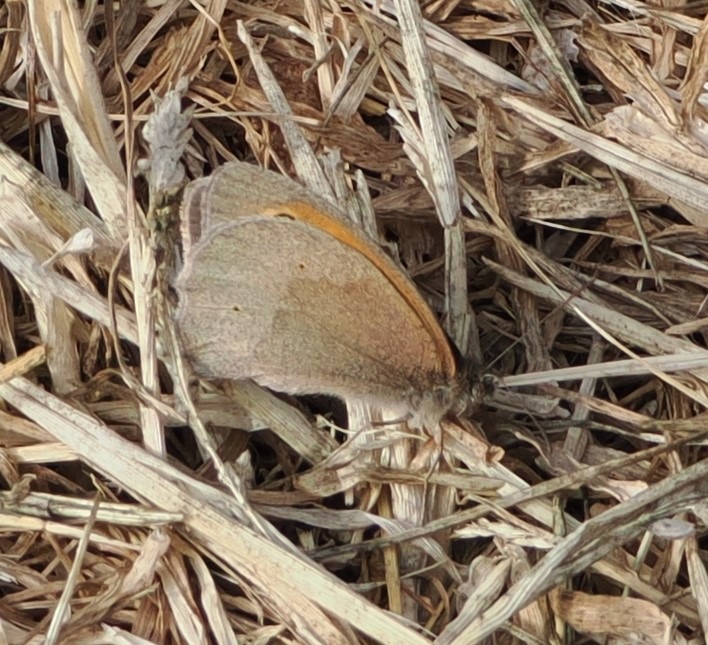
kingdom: Animalia
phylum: Arthropoda
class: Insecta
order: Lepidoptera
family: Nymphalidae
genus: Maniola
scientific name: Maniola jurtina
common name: Græsrandøje
